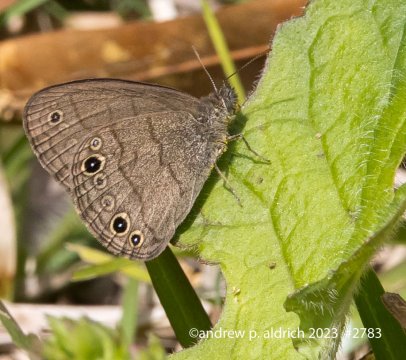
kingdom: Animalia
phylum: Arthropoda
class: Insecta
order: Lepidoptera
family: Nymphalidae
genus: Hermeuptychia
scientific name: Hermeuptychia hermes
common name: Carolina Satyr
